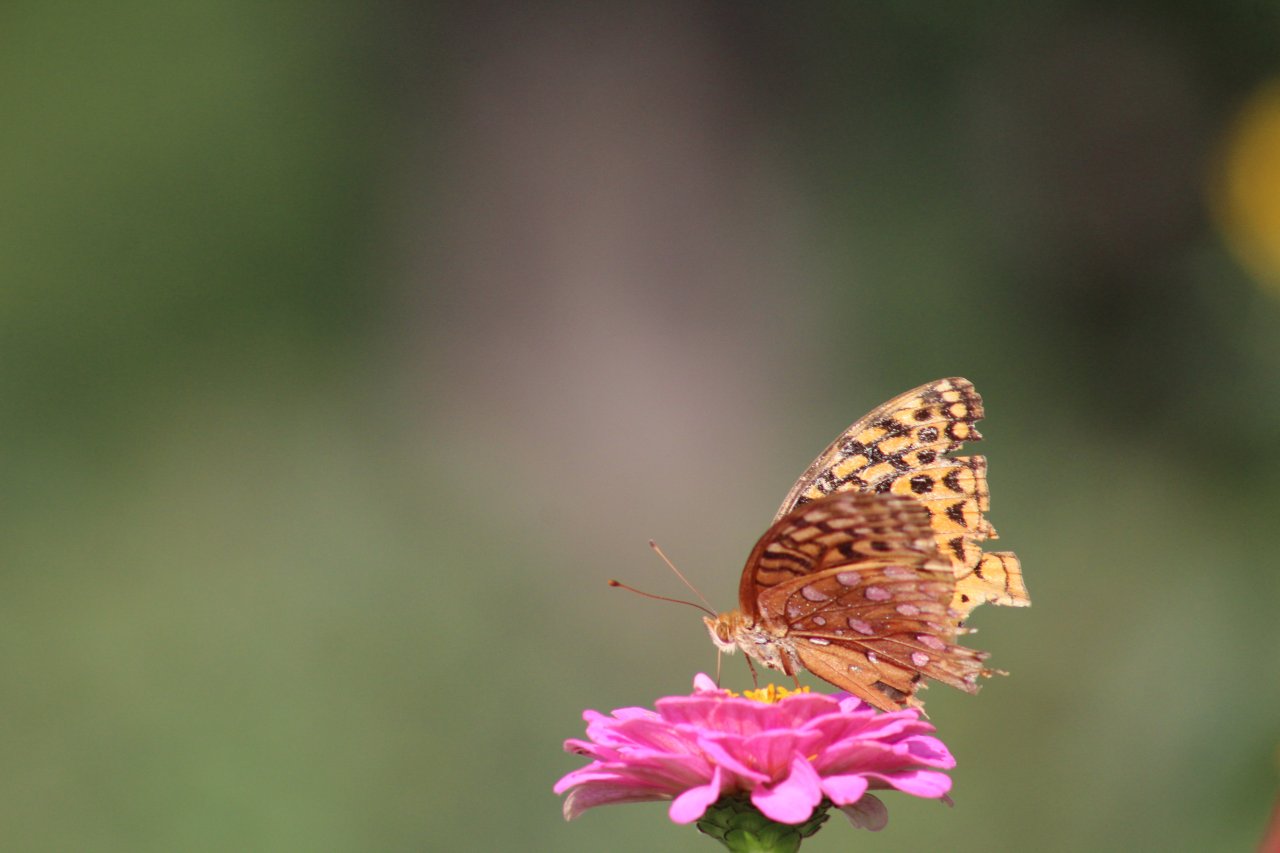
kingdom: Animalia
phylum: Arthropoda
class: Insecta
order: Lepidoptera
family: Nymphalidae
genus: Speyeria
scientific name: Speyeria cybele
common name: Great Spangled Fritillary
